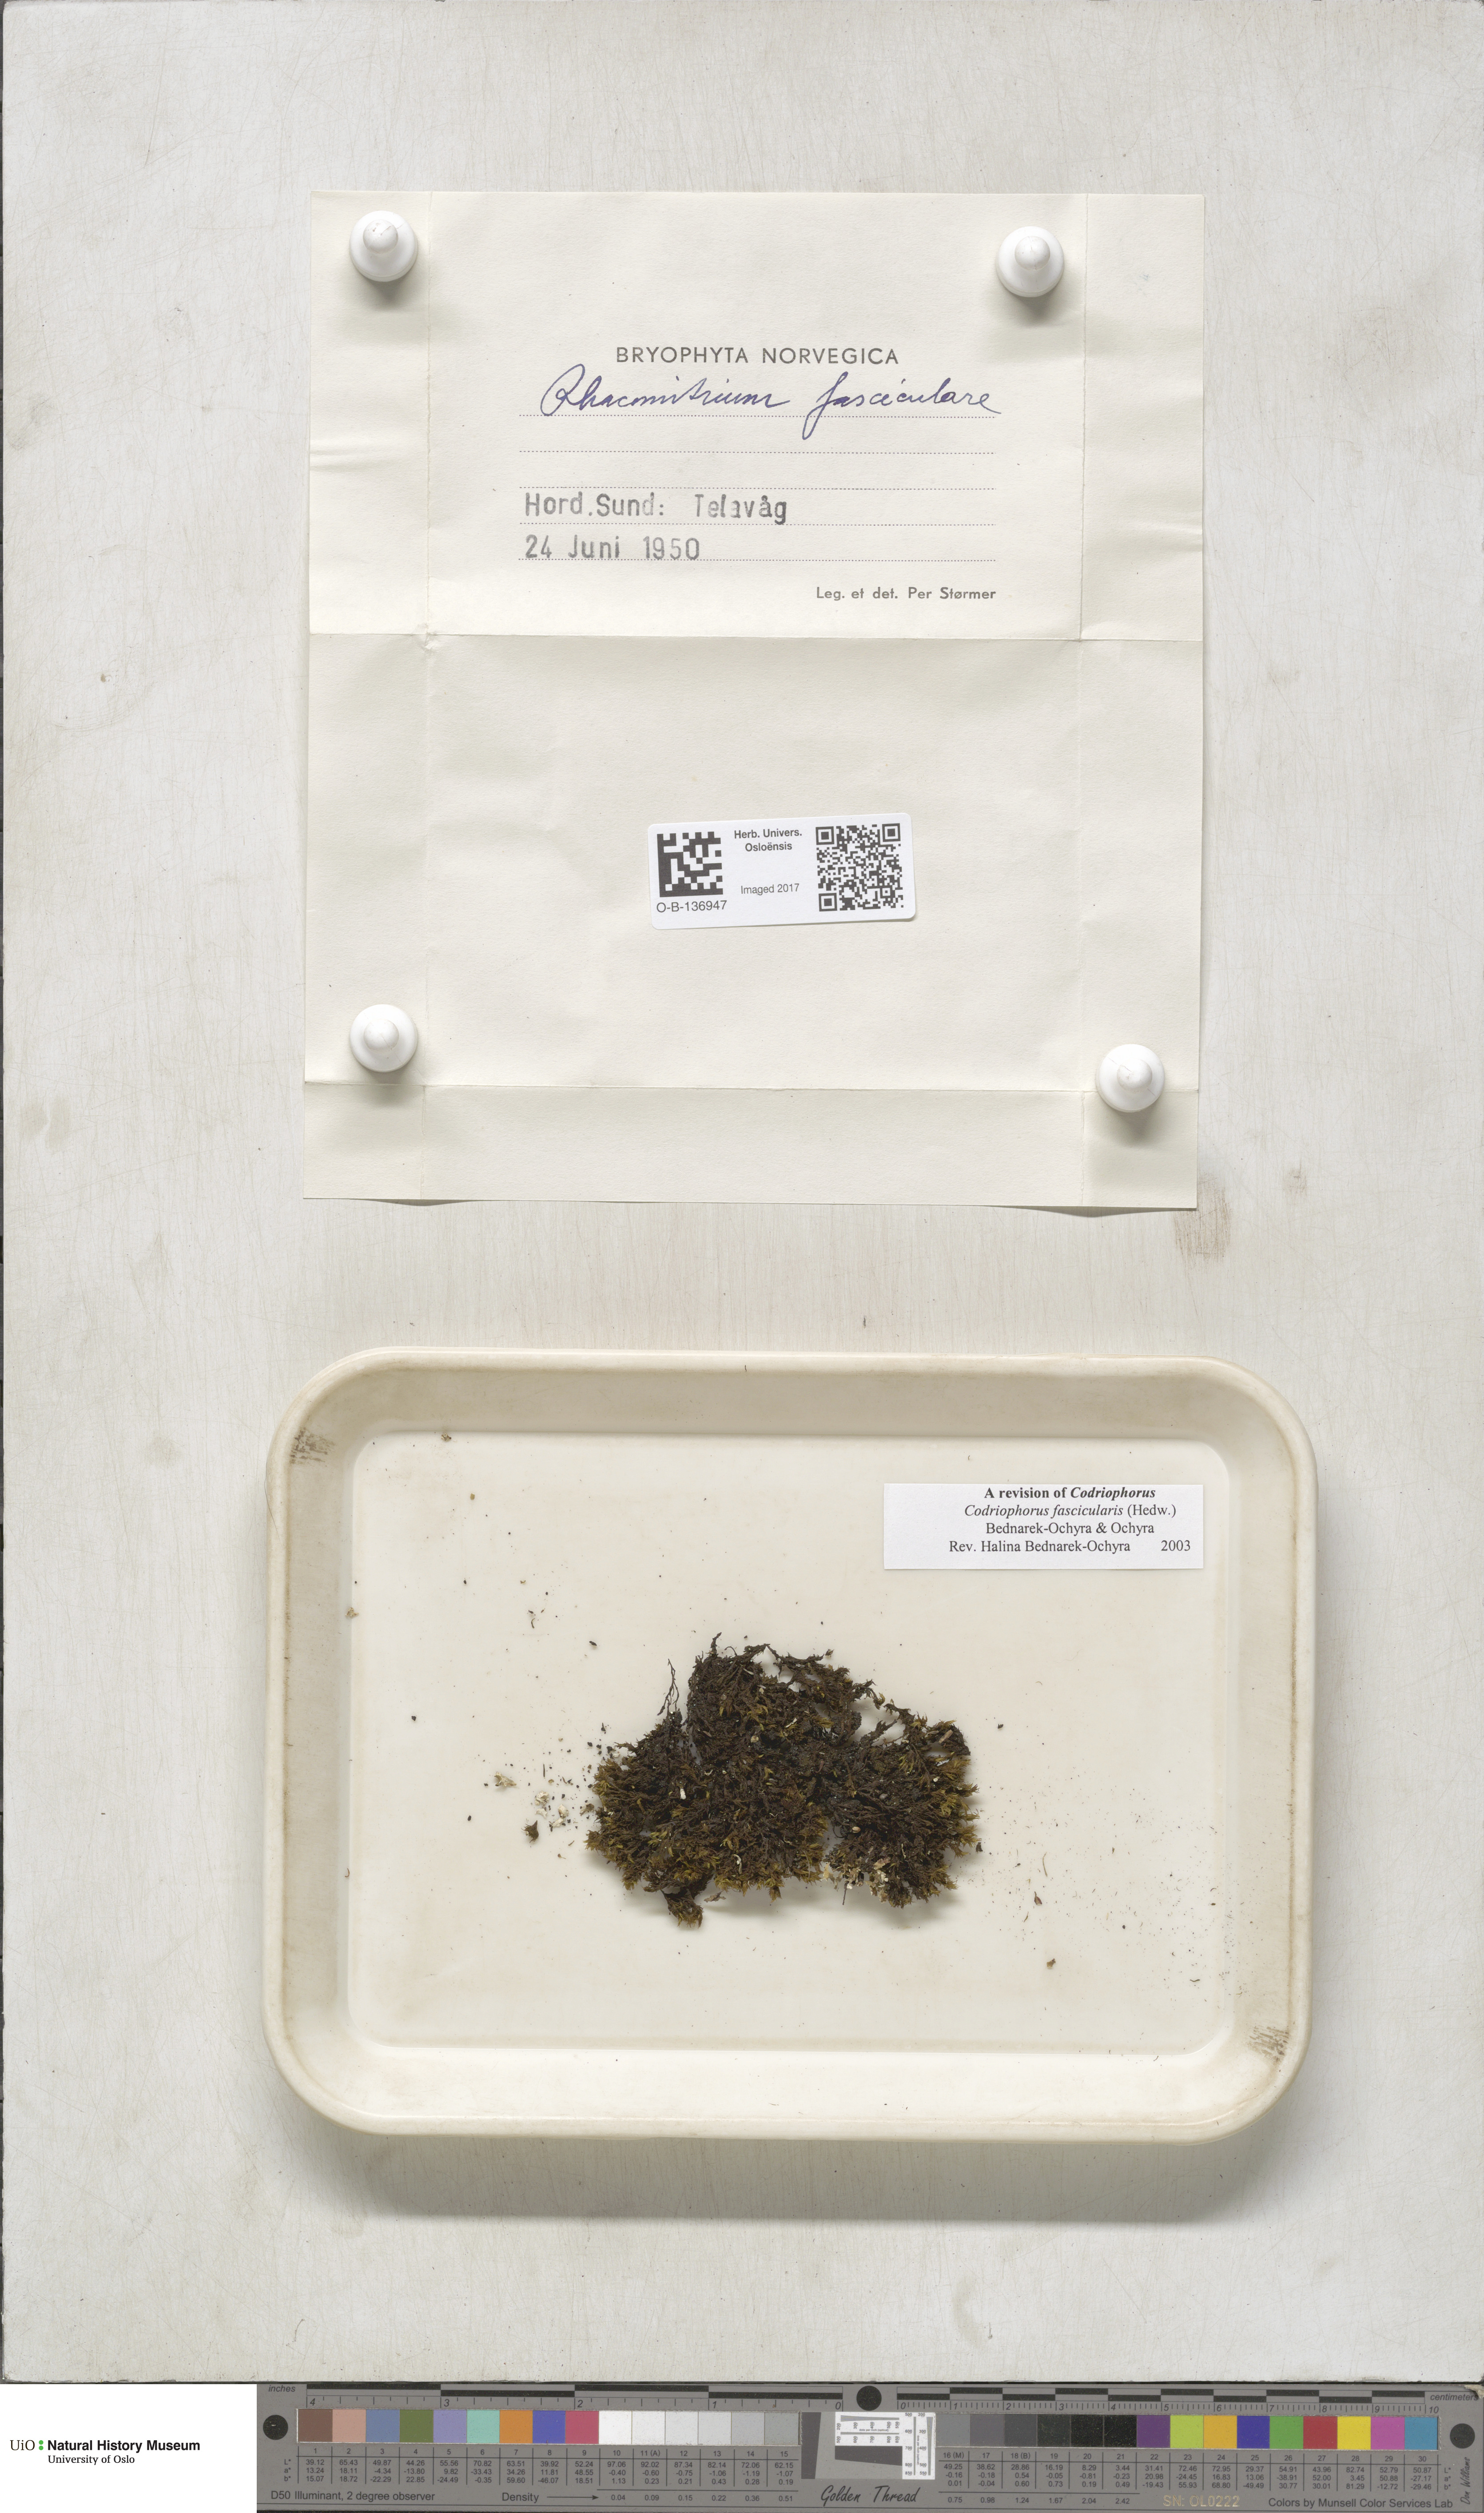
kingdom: Plantae
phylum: Bryophyta
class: Bryopsida
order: Grimmiales
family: Grimmiaceae
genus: Dilutineuron
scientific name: Dilutineuron fasciculare
